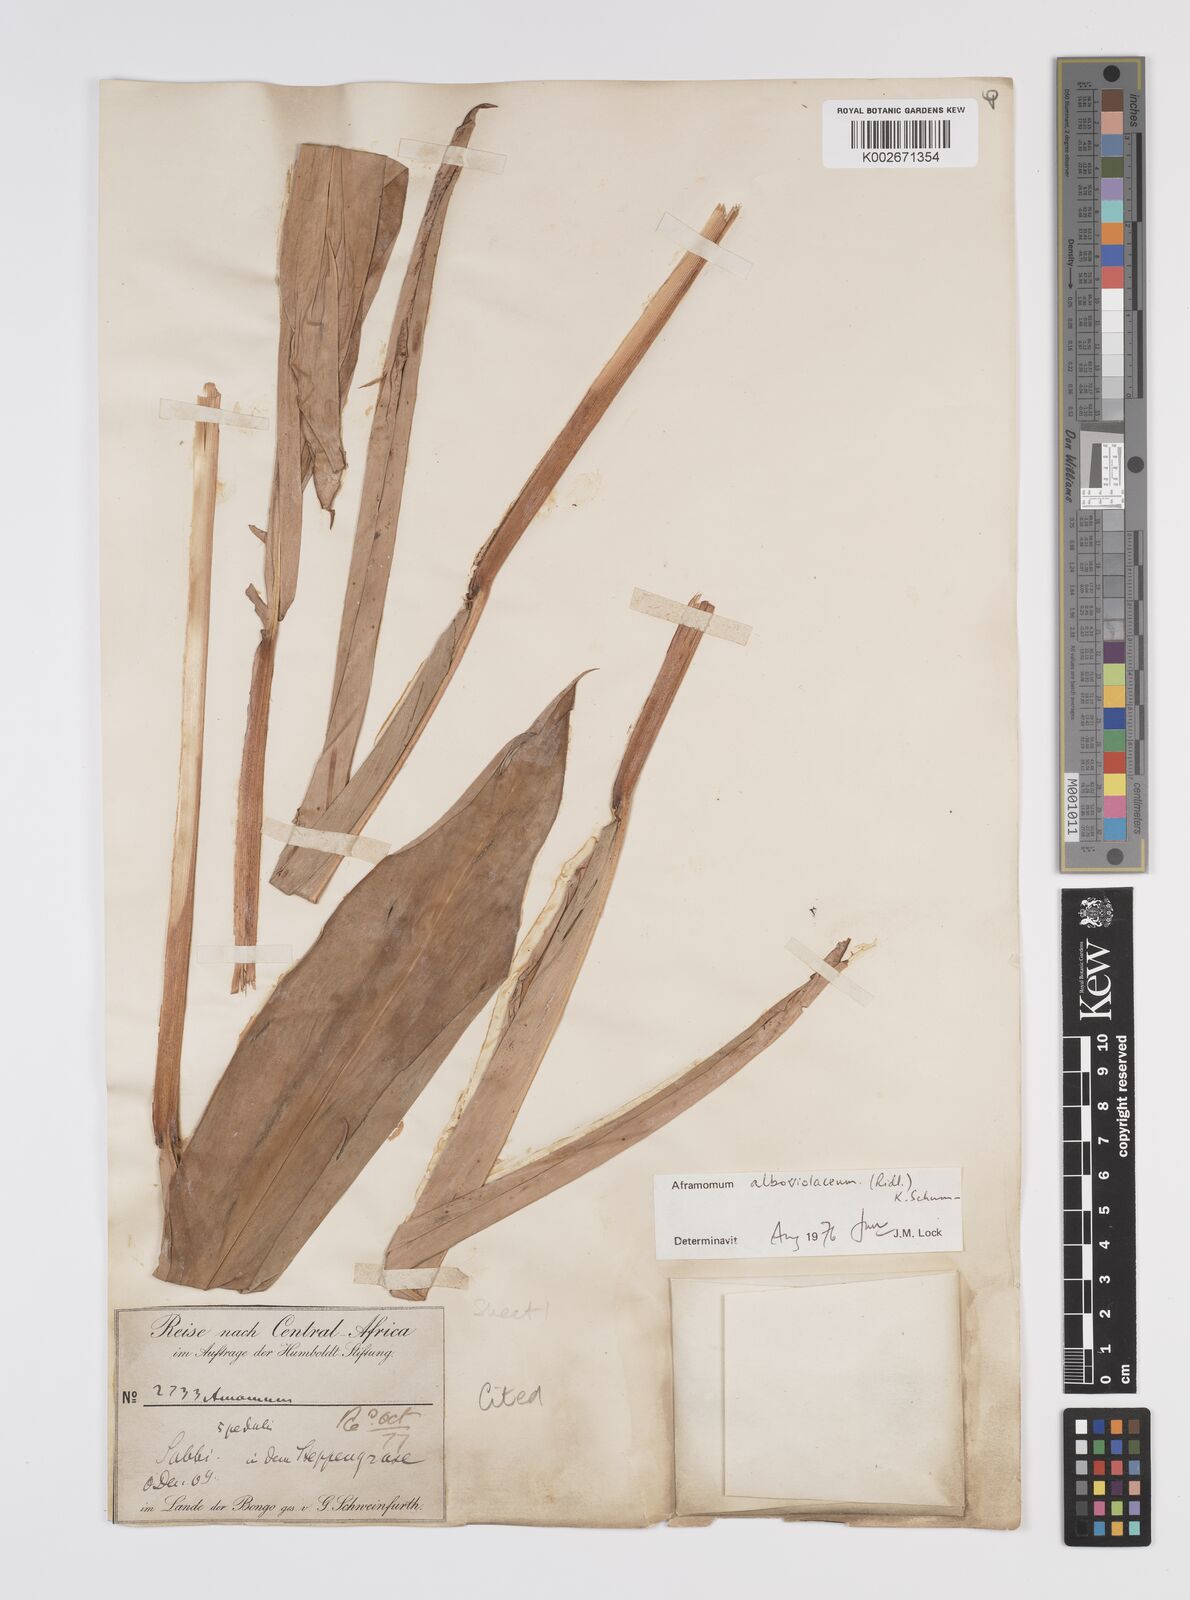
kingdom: Plantae
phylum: Tracheophyta
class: Liliopsida
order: Zingiberales
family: Zingiberaceae
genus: Aframomum
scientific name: Aframomum alboviolaceum
